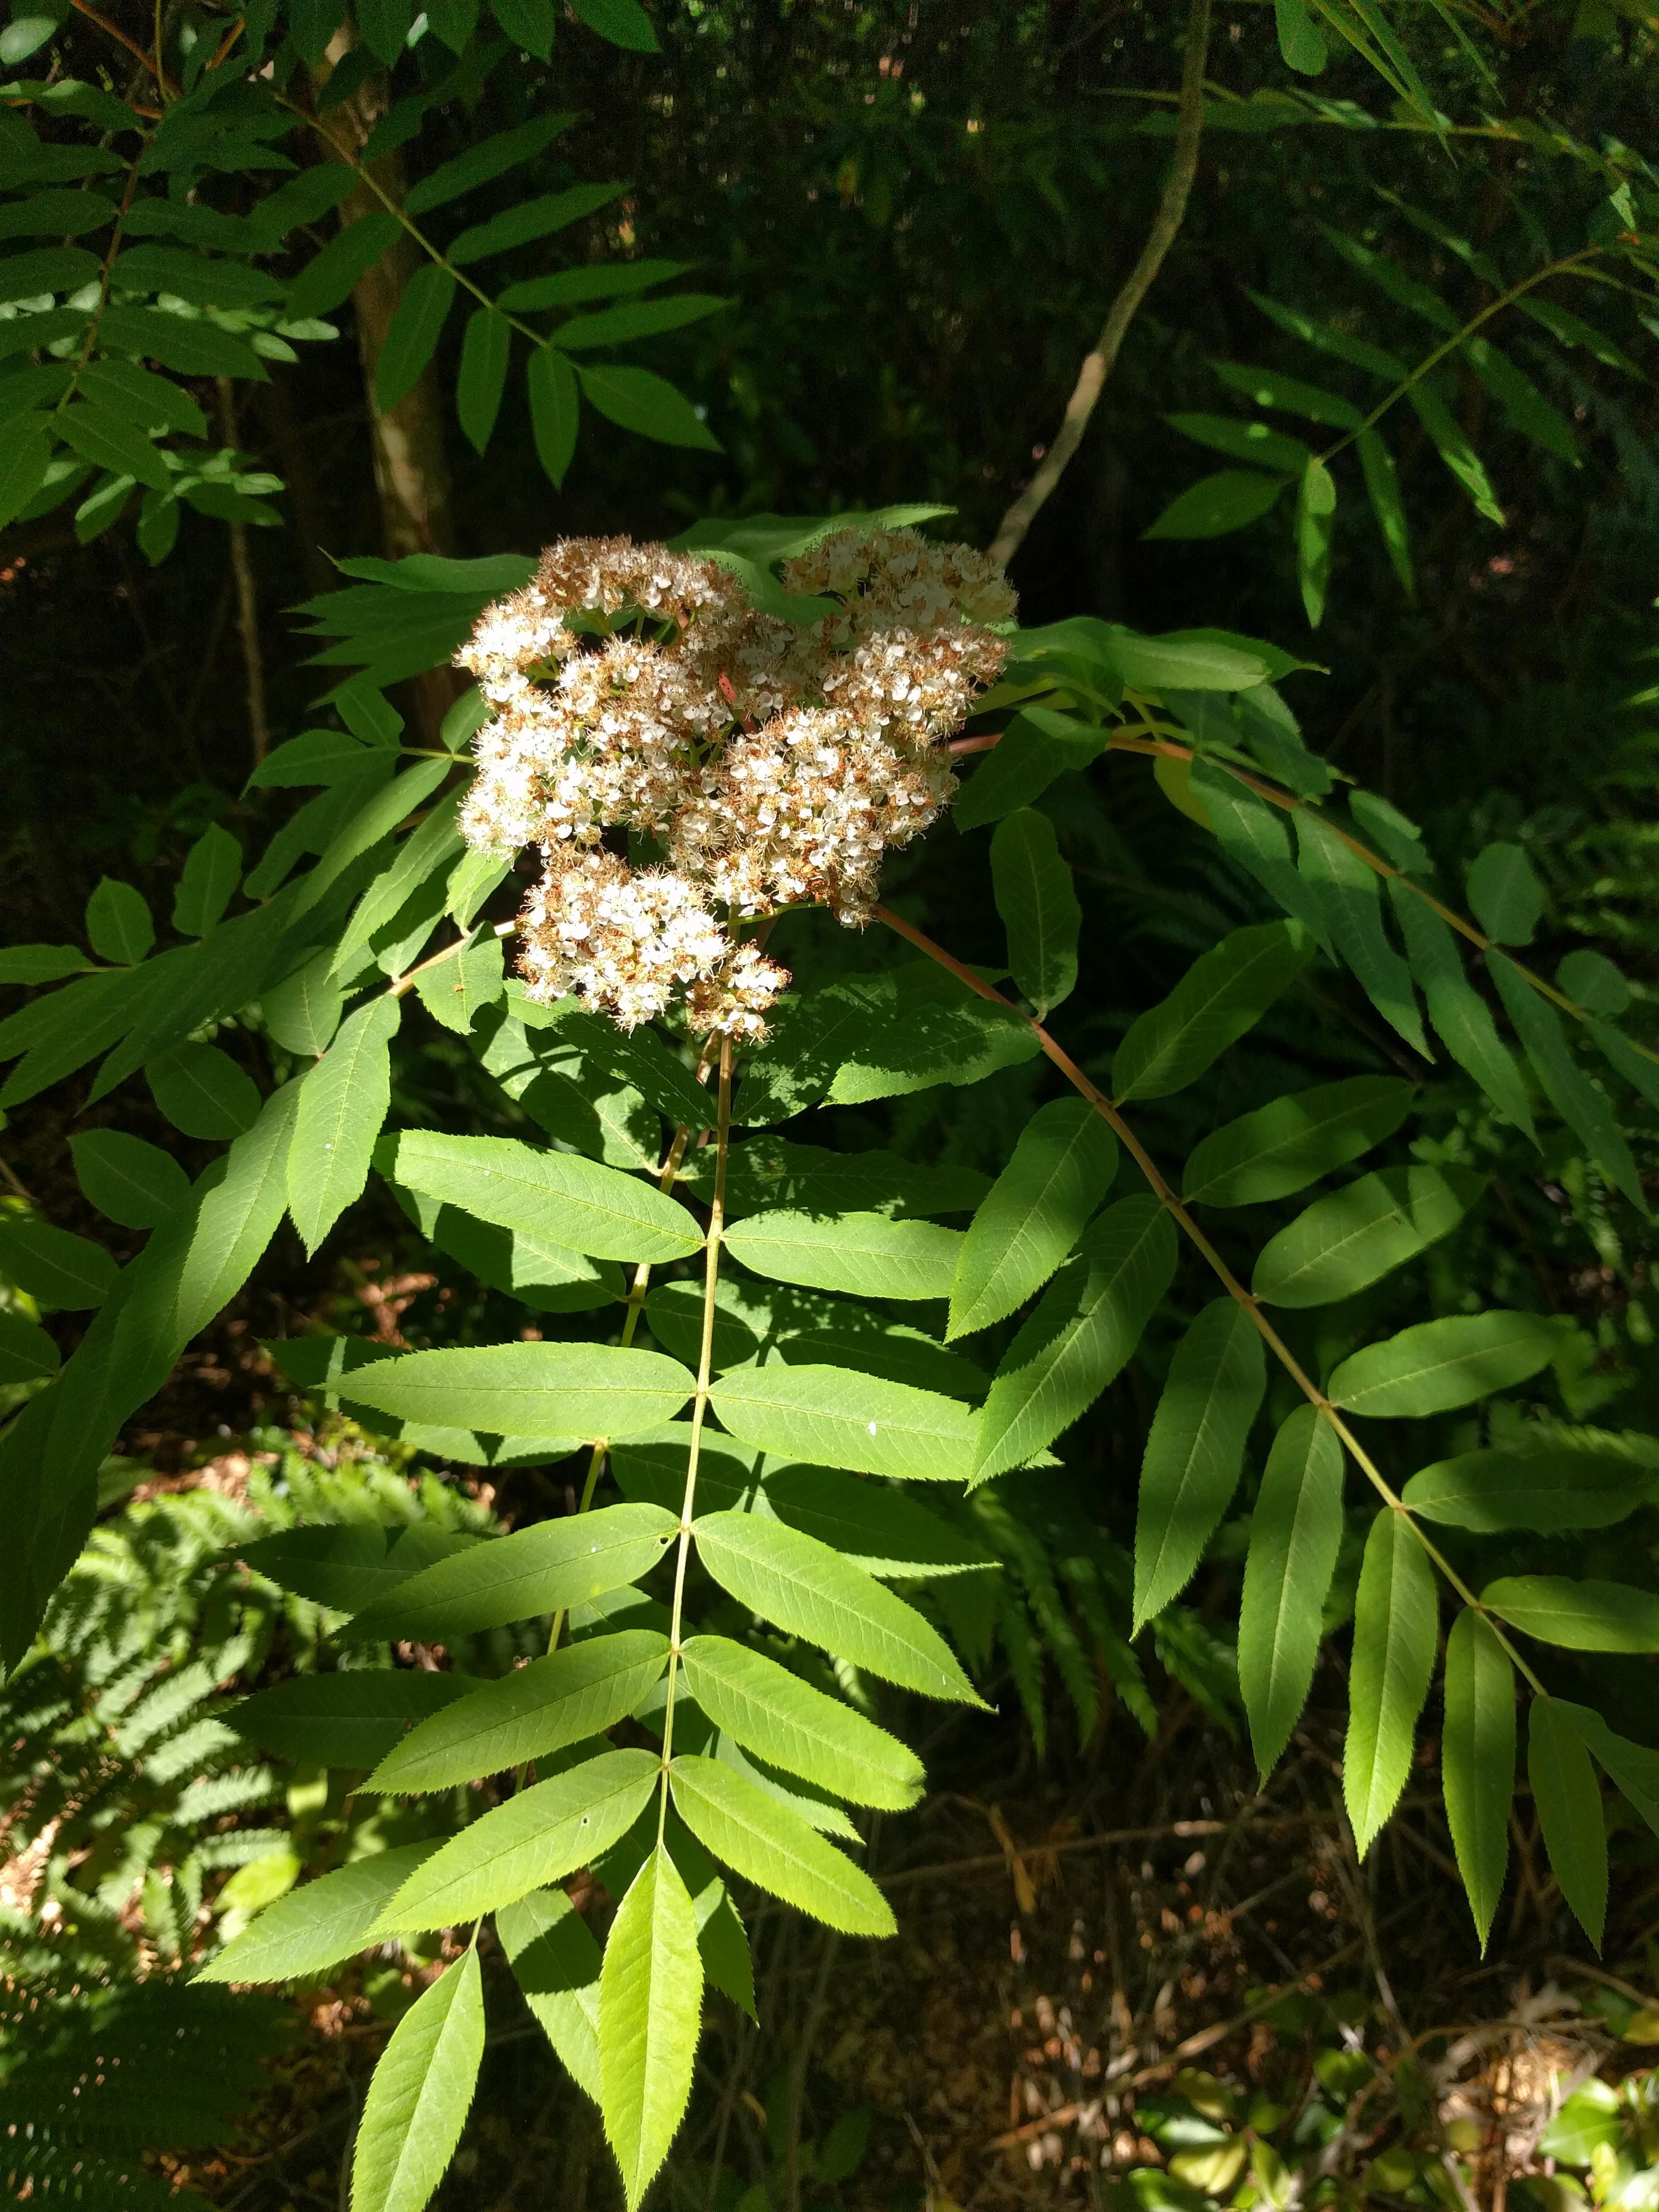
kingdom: Plantae
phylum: Tracheophyta
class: Magnoliopsida
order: Rosales
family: Rosaceae
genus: Sorbus
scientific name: Sorbus americana
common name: American mountain-ash
